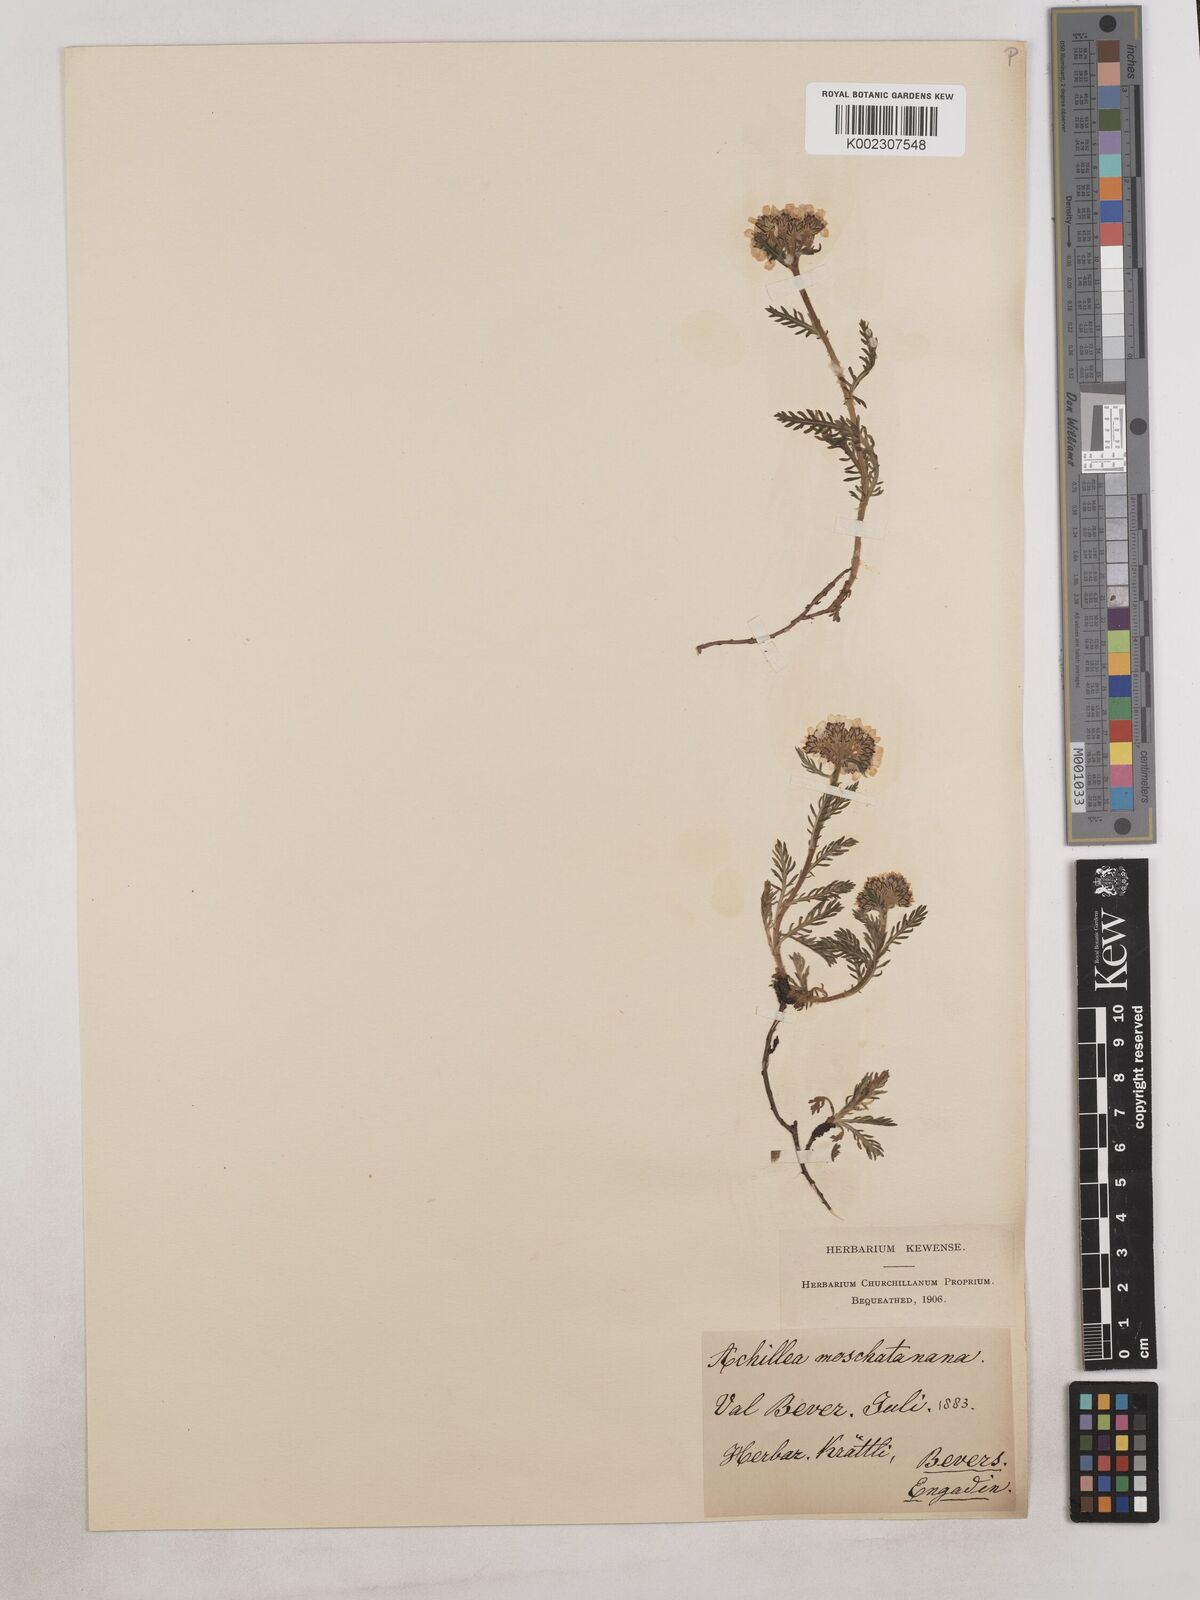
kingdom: Plantae
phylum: Tracheophyta
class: Magnoliopsida
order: Asterales
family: Asteraceae
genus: Achillea
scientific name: Achillea erba-rotta
